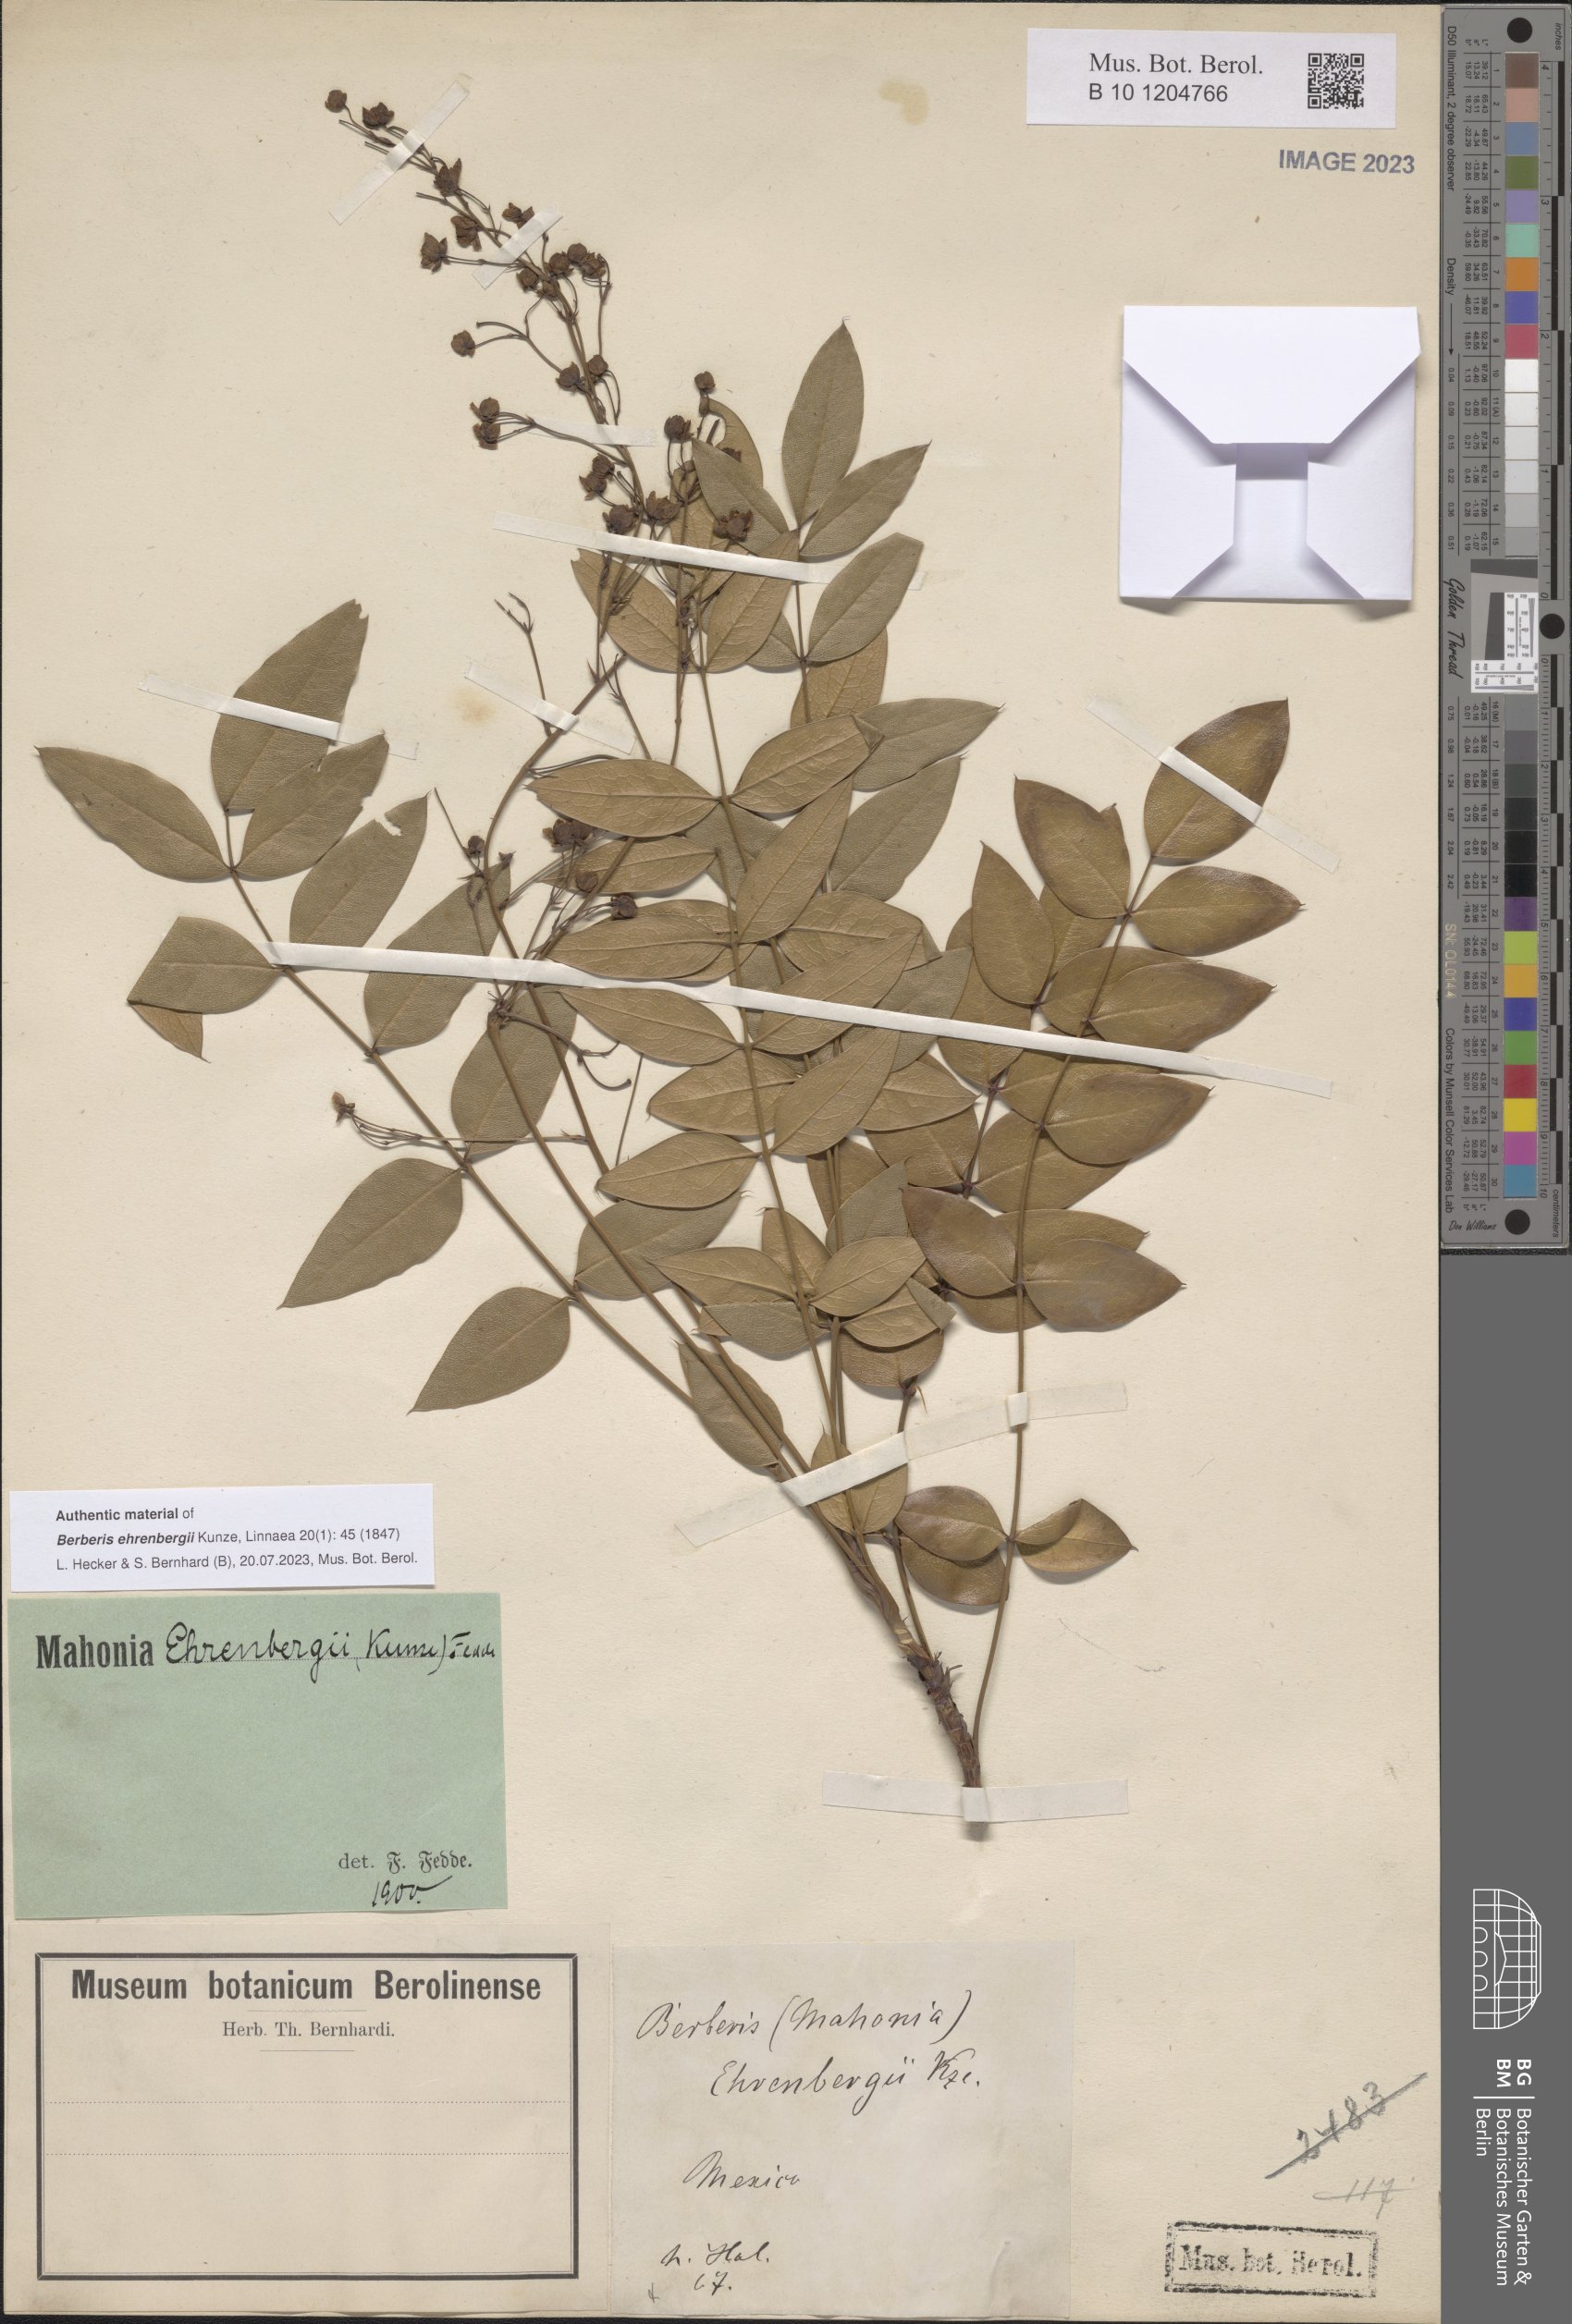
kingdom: Plantae
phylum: Tracheophyta
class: Magnoliopsida
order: Ranunculales
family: Berberidaceae
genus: Mahonia
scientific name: Mahonia ehrenbergii
